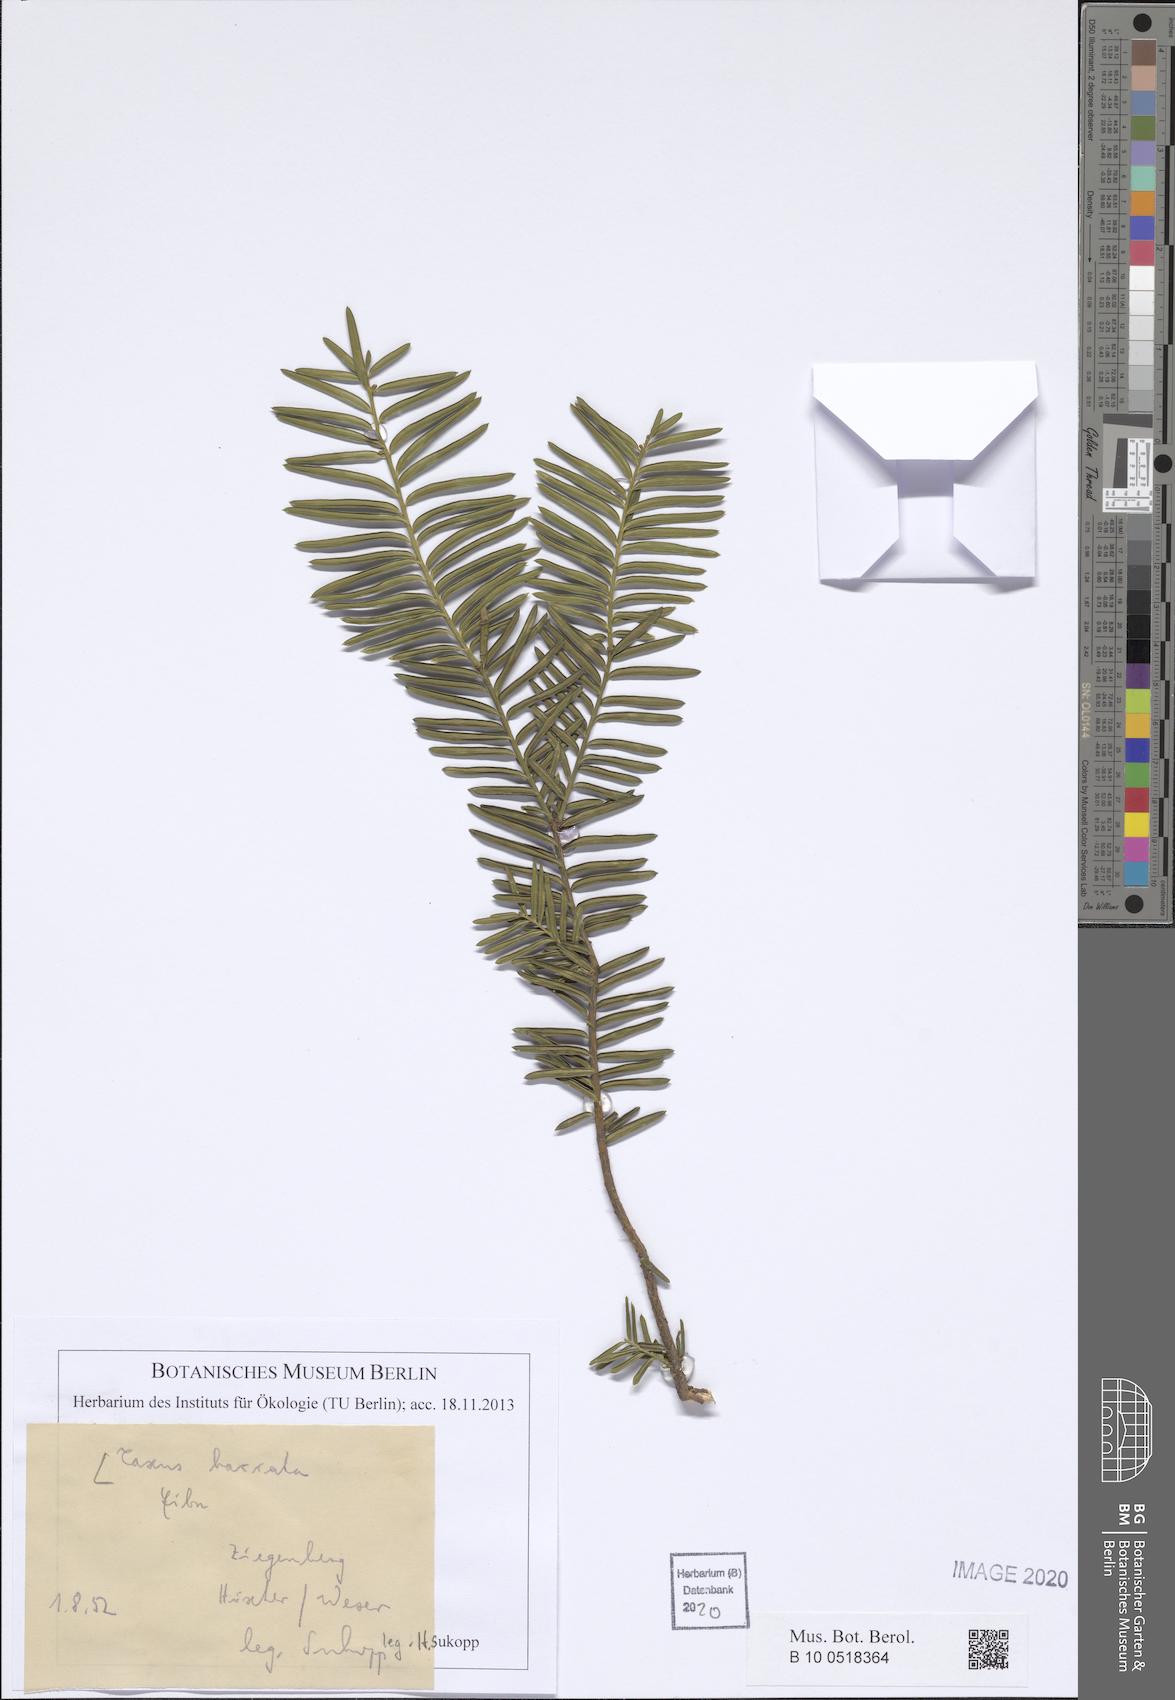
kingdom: Plantae
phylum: Tracheophyta
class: Pinopsida
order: Pinales
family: Taxaceae
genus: Taxus
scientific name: Taxus baccata
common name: Yew
